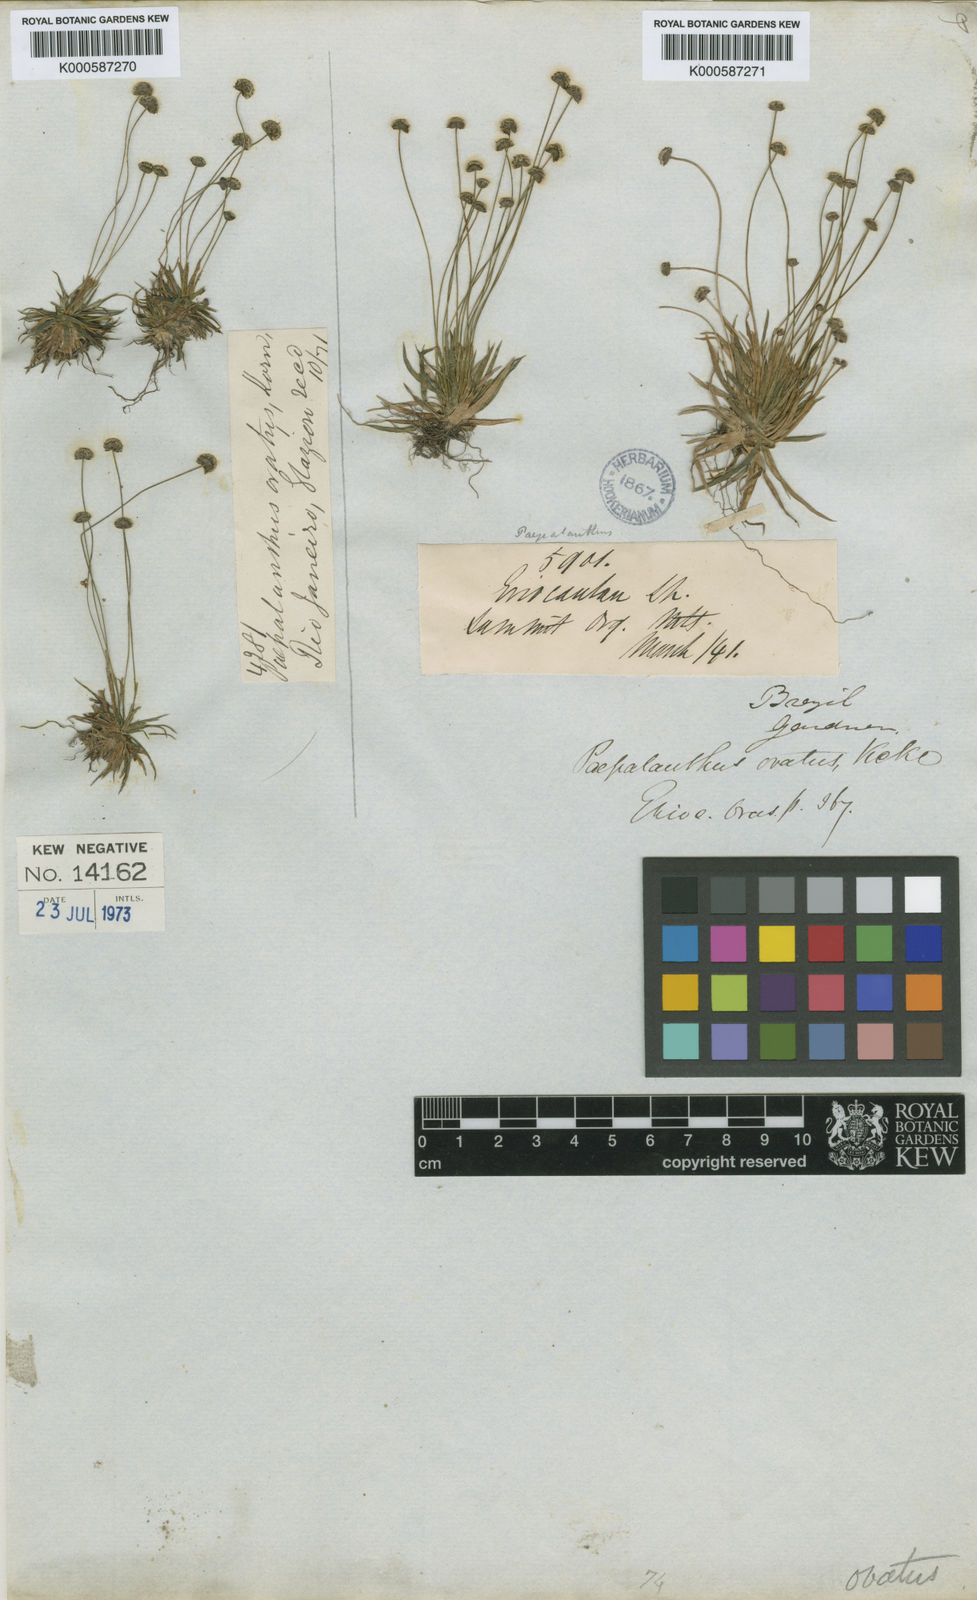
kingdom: Plantae
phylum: Tracheophyta
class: Liliopsida
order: Poales
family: Eriocaulaceae
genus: Paepalanthus
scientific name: Paepalanthus
